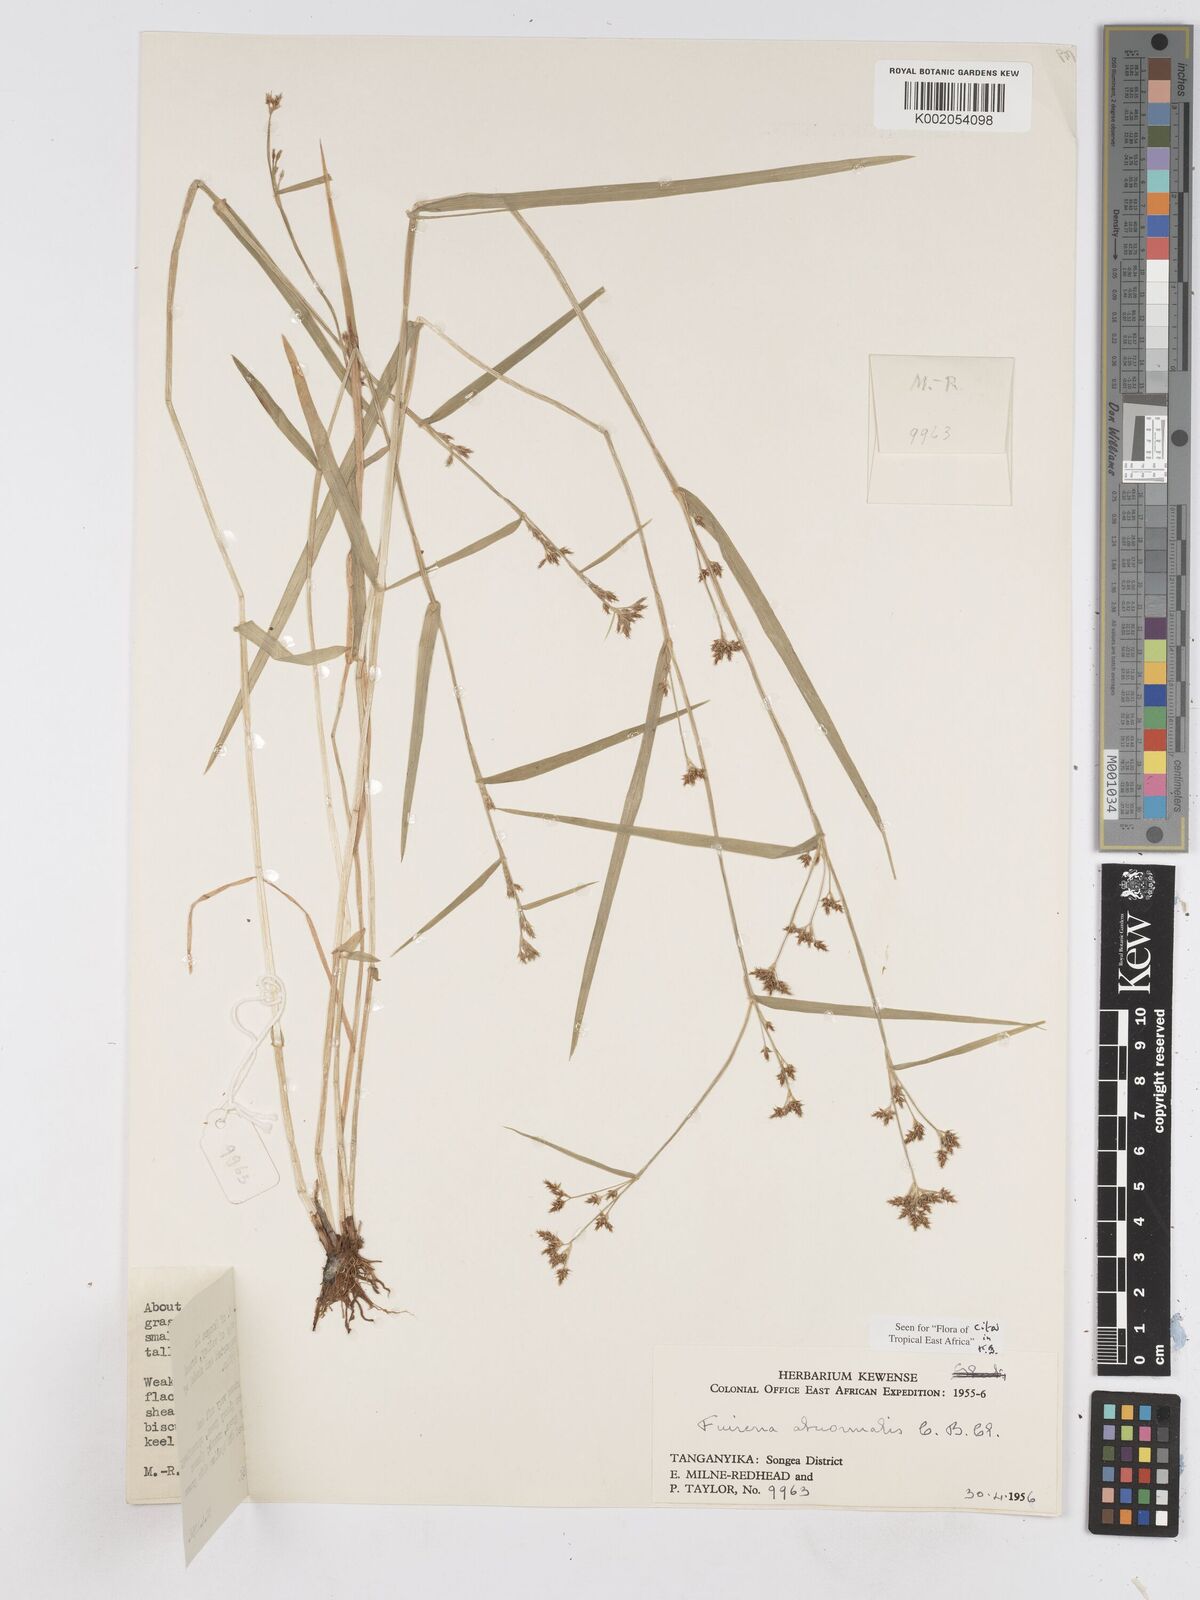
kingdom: Plantae
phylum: Tracheophyta
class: Liliopsida
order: Poales
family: Cyperaceae
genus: Fuirena
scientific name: Fuirena abnormalis
